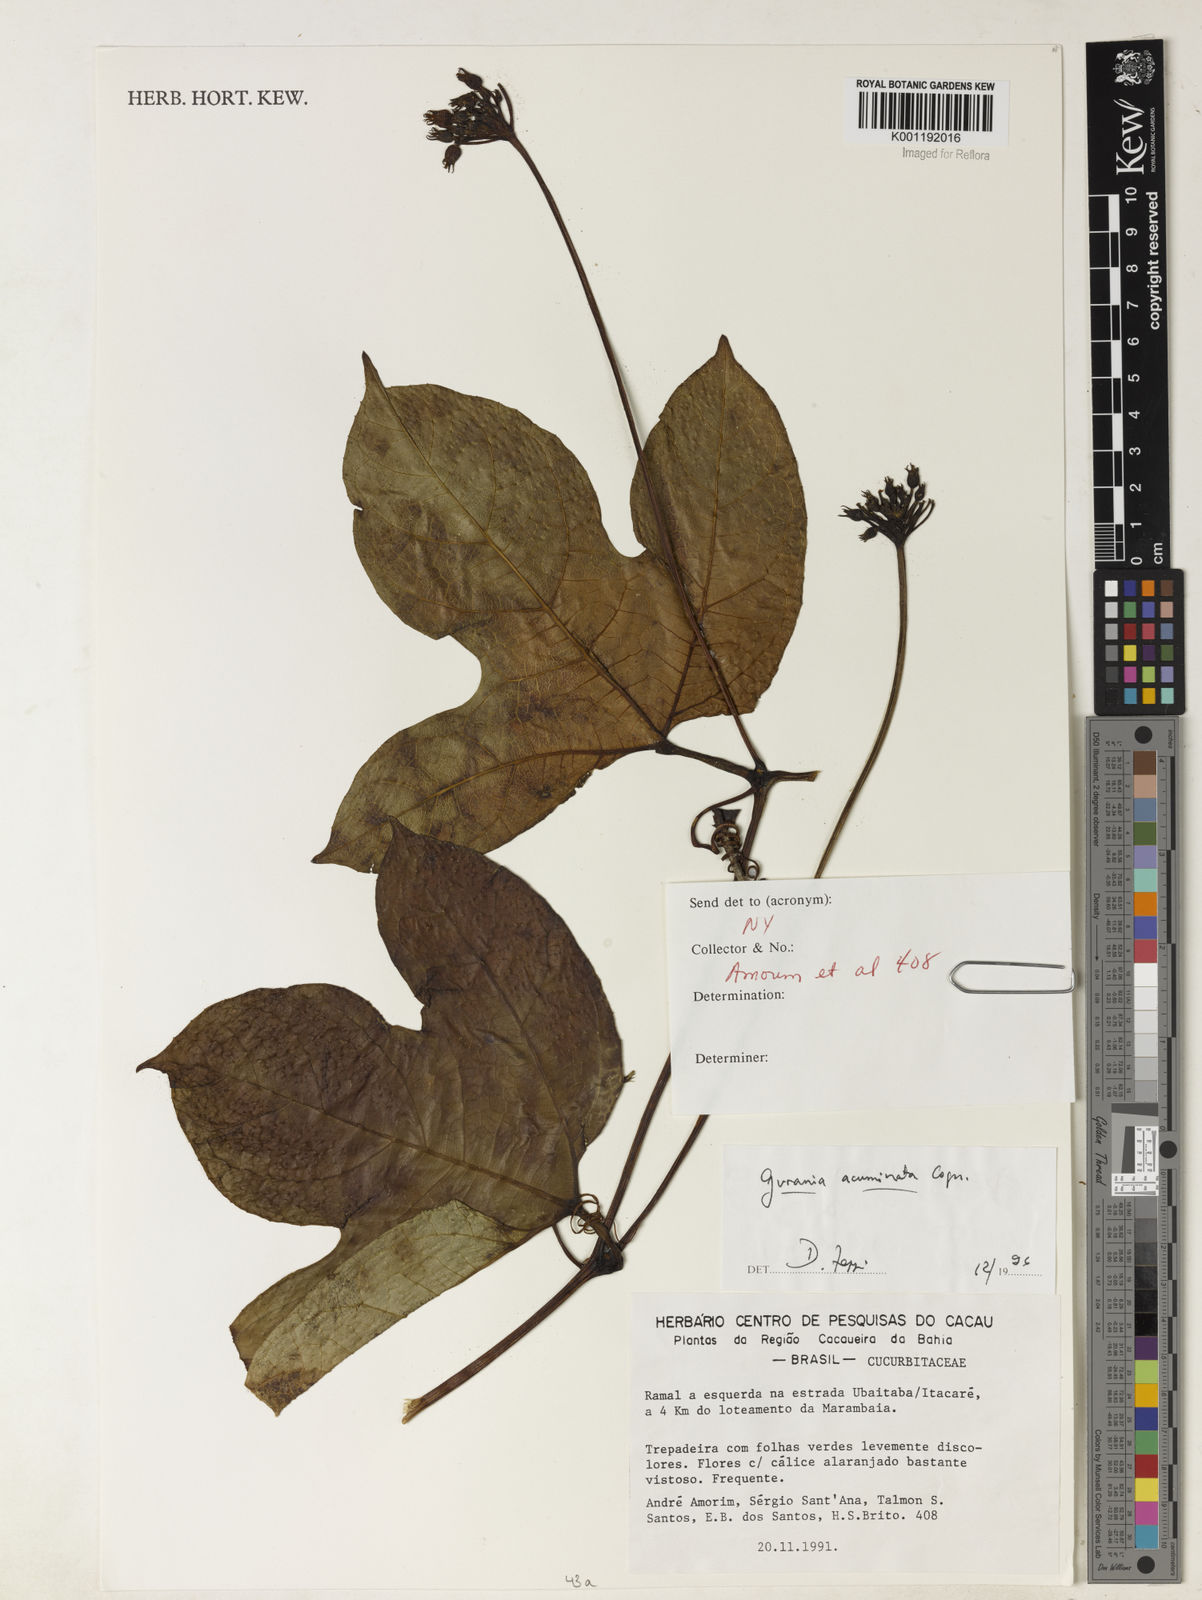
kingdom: Plantae
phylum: Tracheophyta
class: Magnoliopsida
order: Cucurbitales
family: Cucurbitaceae
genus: Gurania
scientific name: Gurania acuminata
